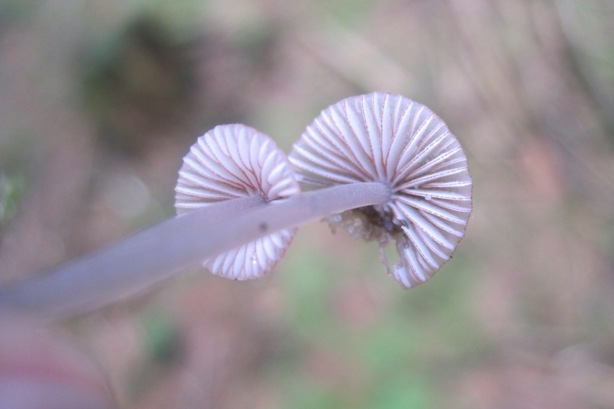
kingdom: Fungi
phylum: Basidiomycota
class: Agaricomycetes
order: Agaricales
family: Mycenaceae
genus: Mycena
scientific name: Mycena rubromarginata
